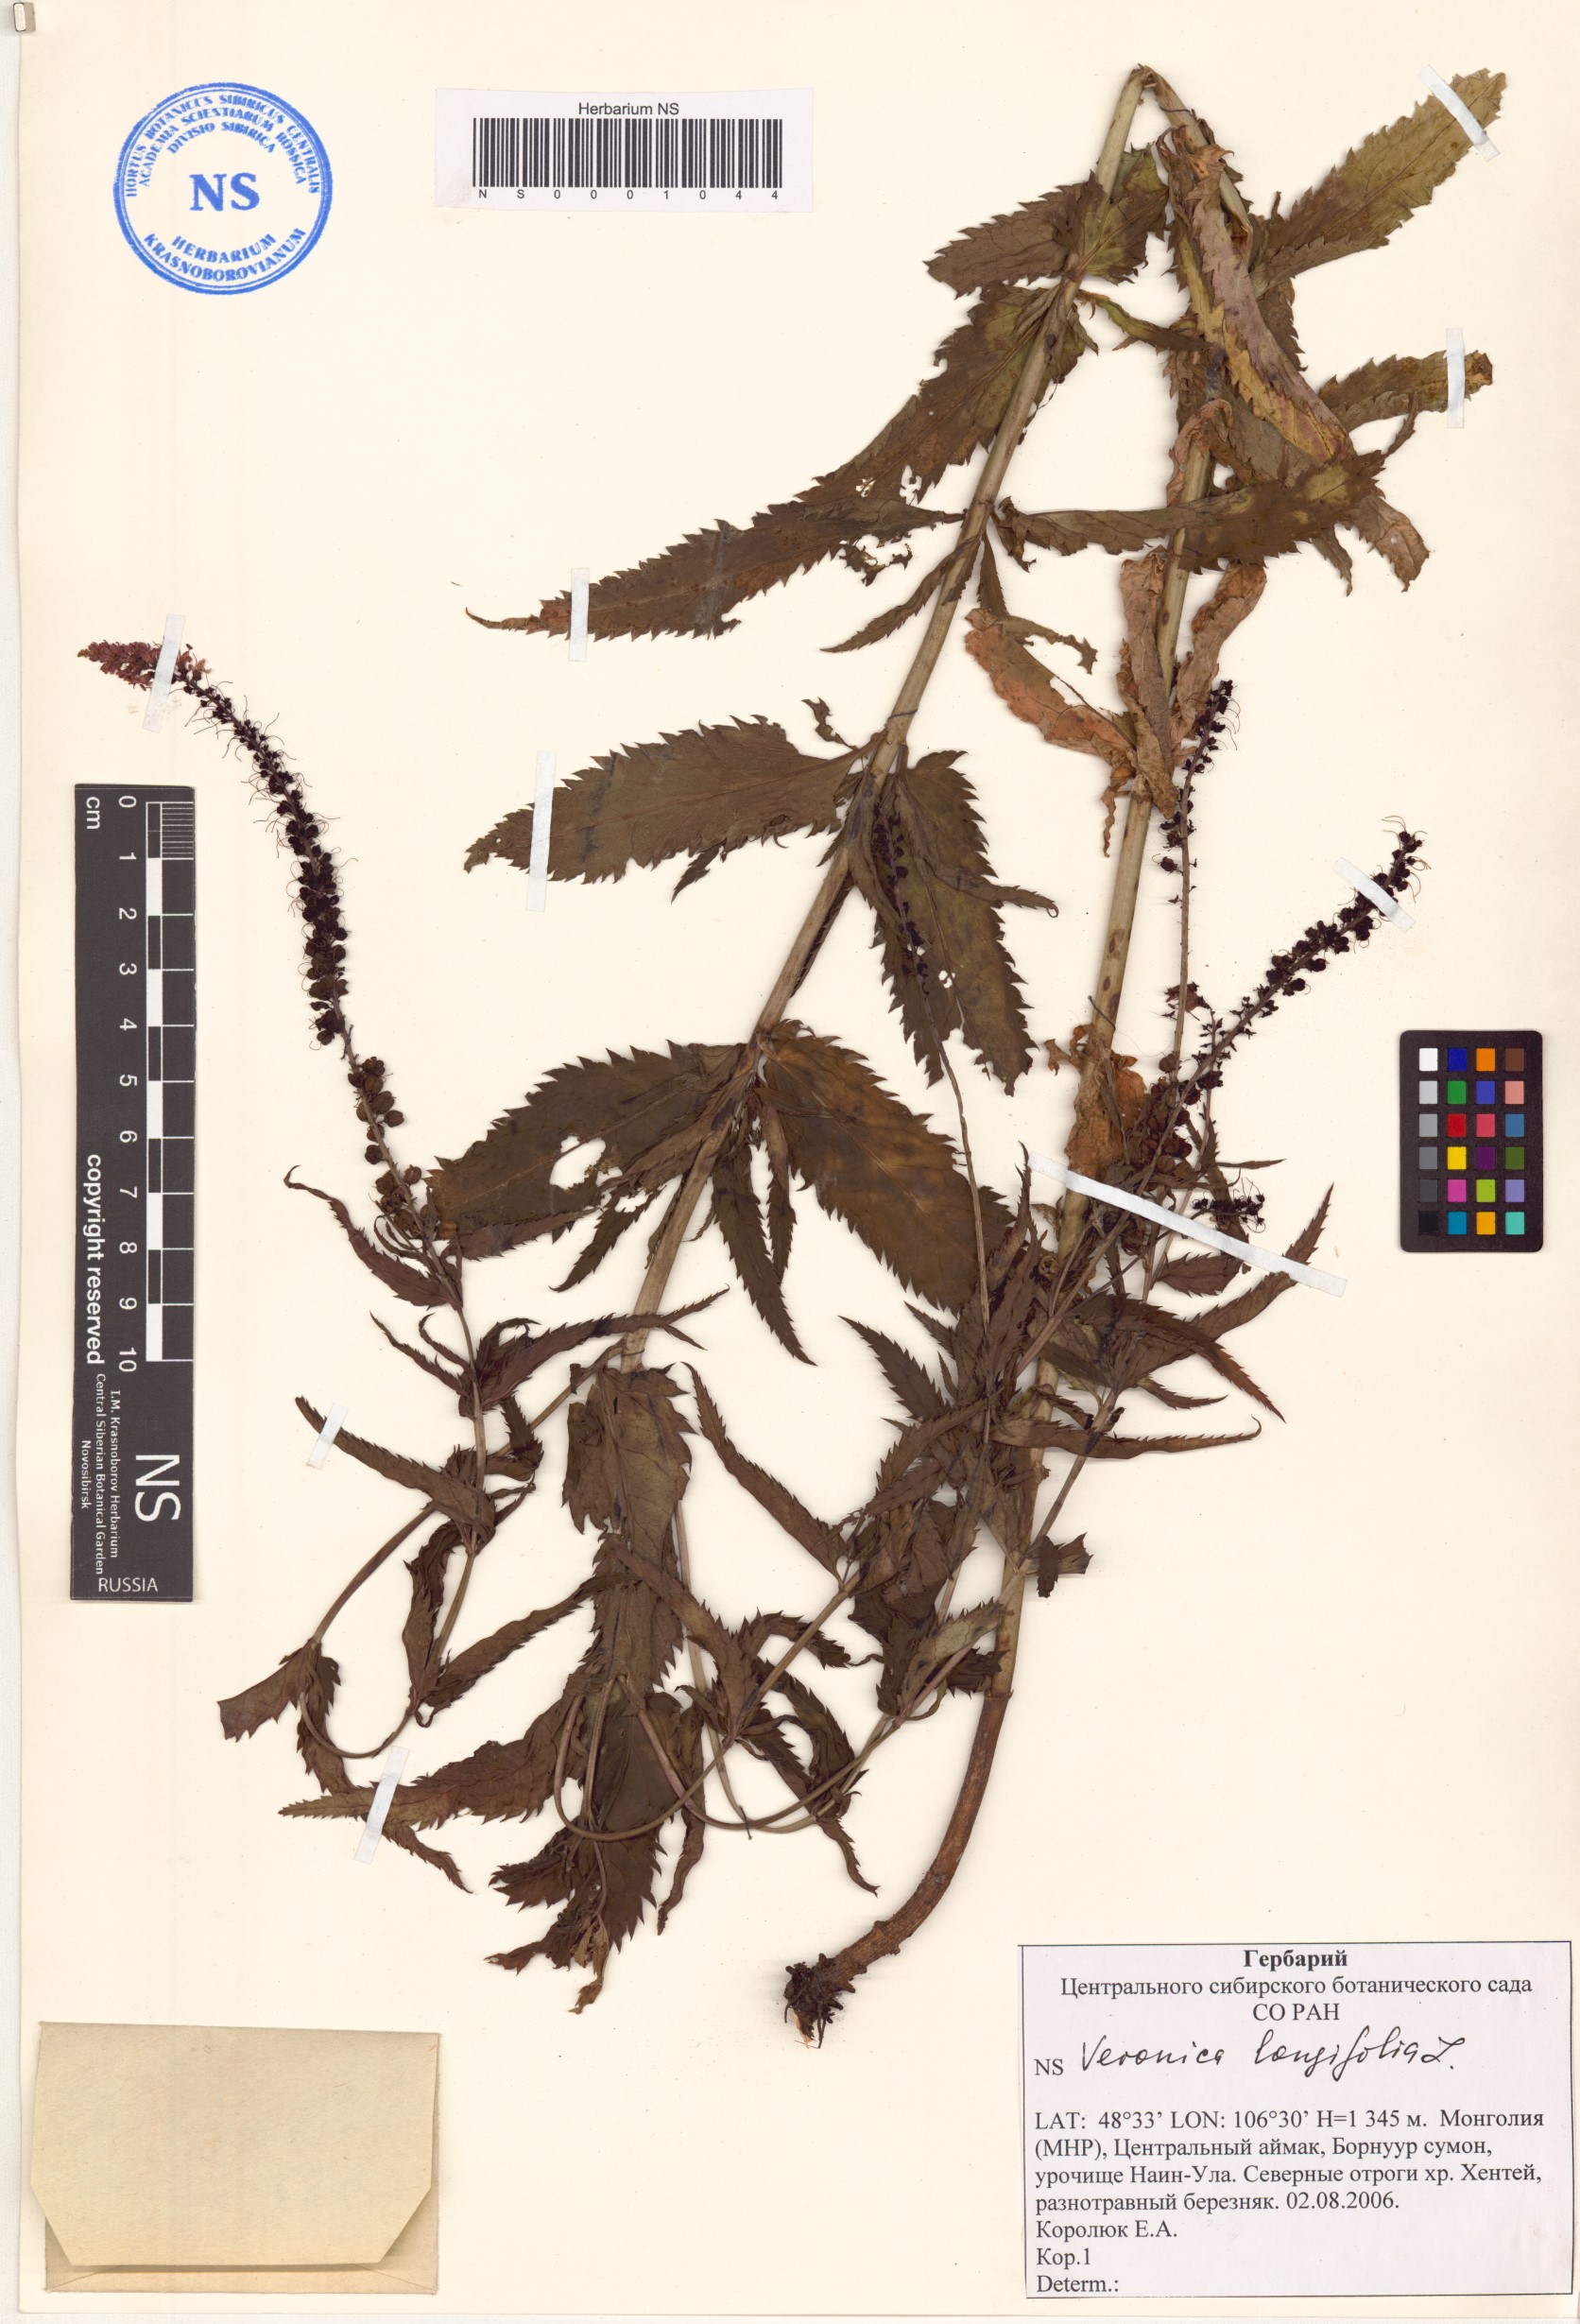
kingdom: Plantae
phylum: Tracheophyta
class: Magnoliopsida
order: Lamiales
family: Plantaginaceae
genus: Veronica
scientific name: Veronica longifolia
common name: Garden speedwell
